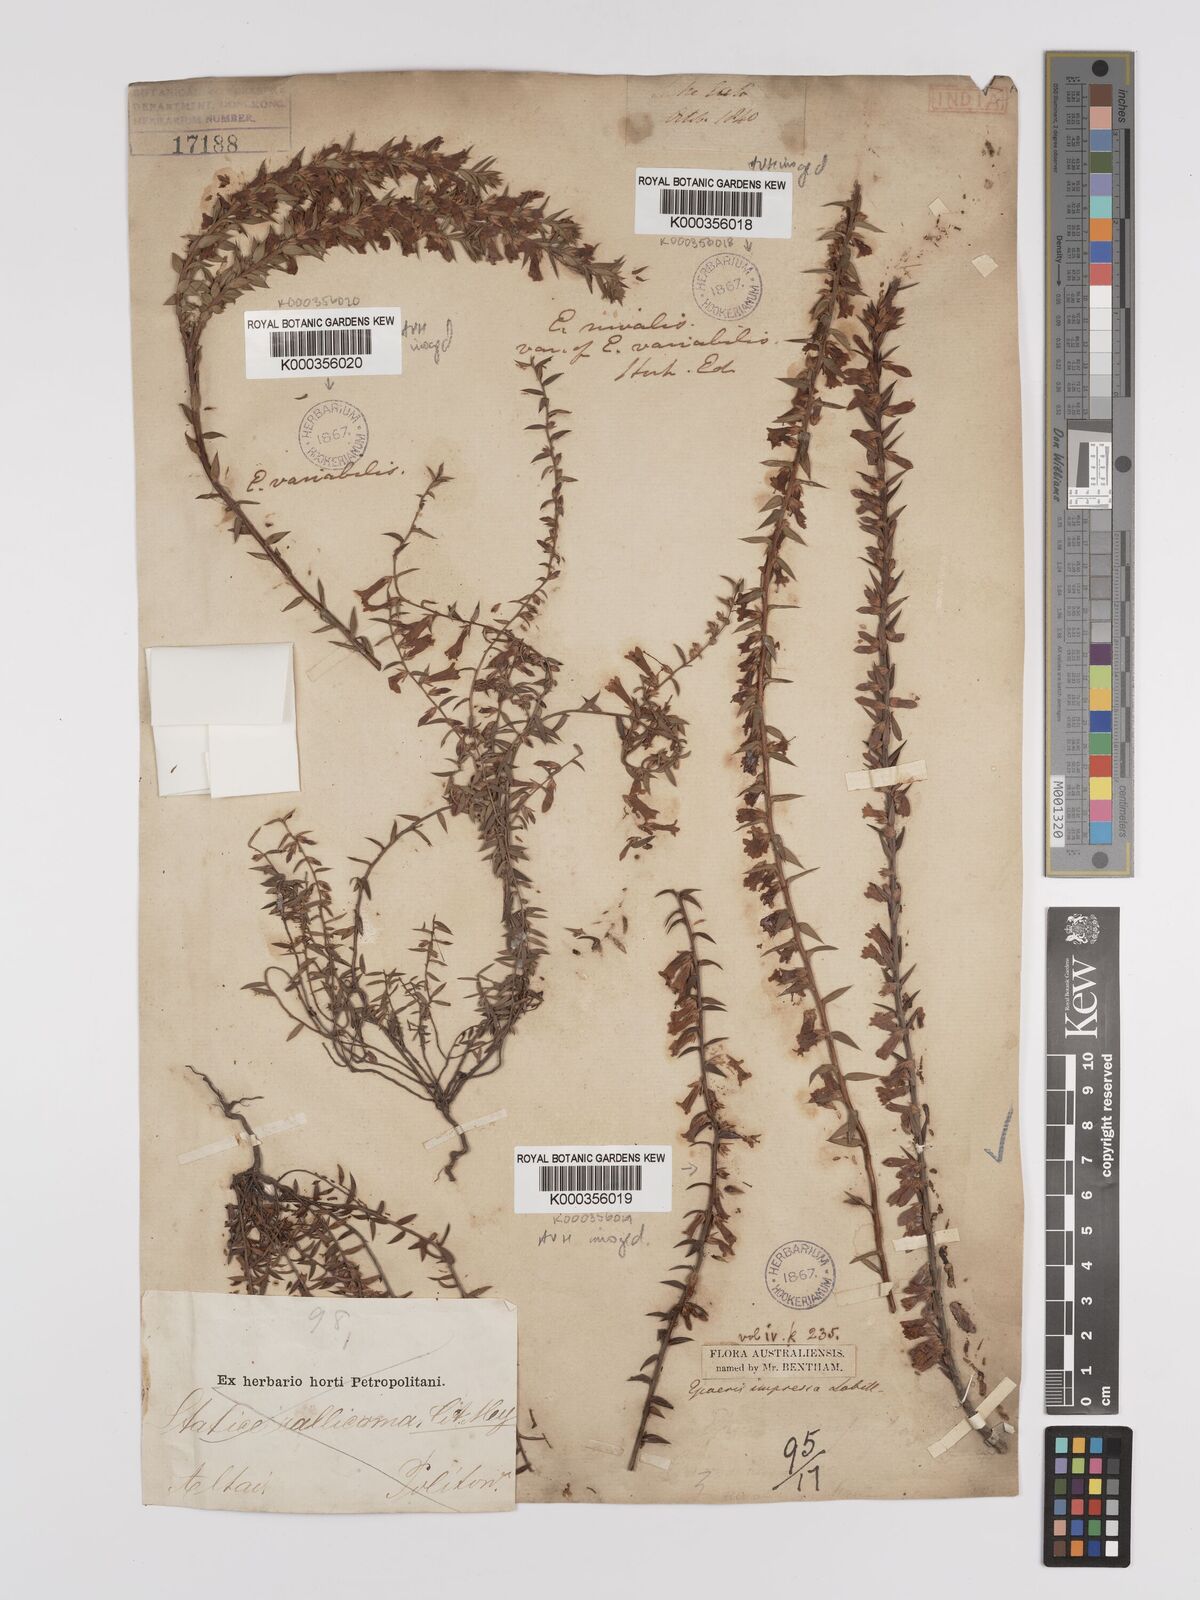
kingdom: Plantae
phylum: Tracheophyta
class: Magnoliopsida
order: Ericales
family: Ericaceae
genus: Epacris
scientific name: Epacris
